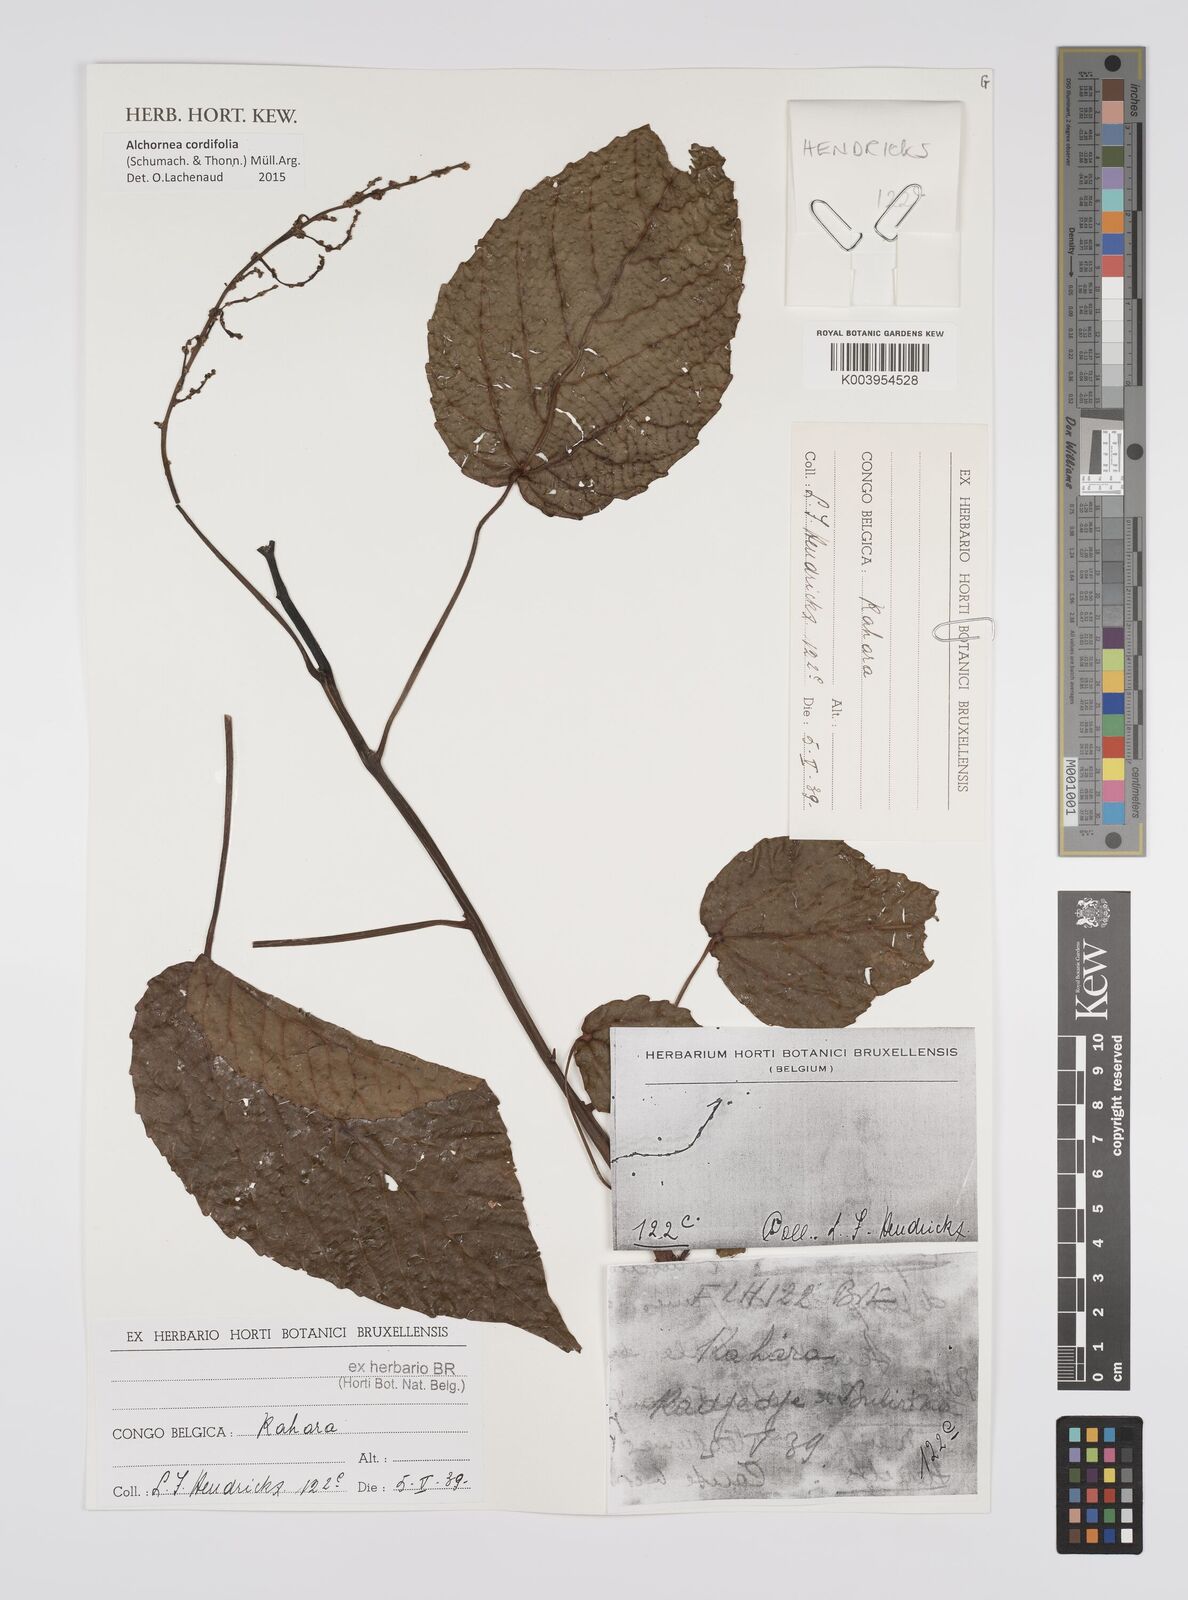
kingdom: Plantae
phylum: Tracheophyta
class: Magnoliopsida
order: Malpighiales
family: Euphorbiaceae
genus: Alchornea
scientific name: Alchornea cordifolia
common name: Christmasbush
